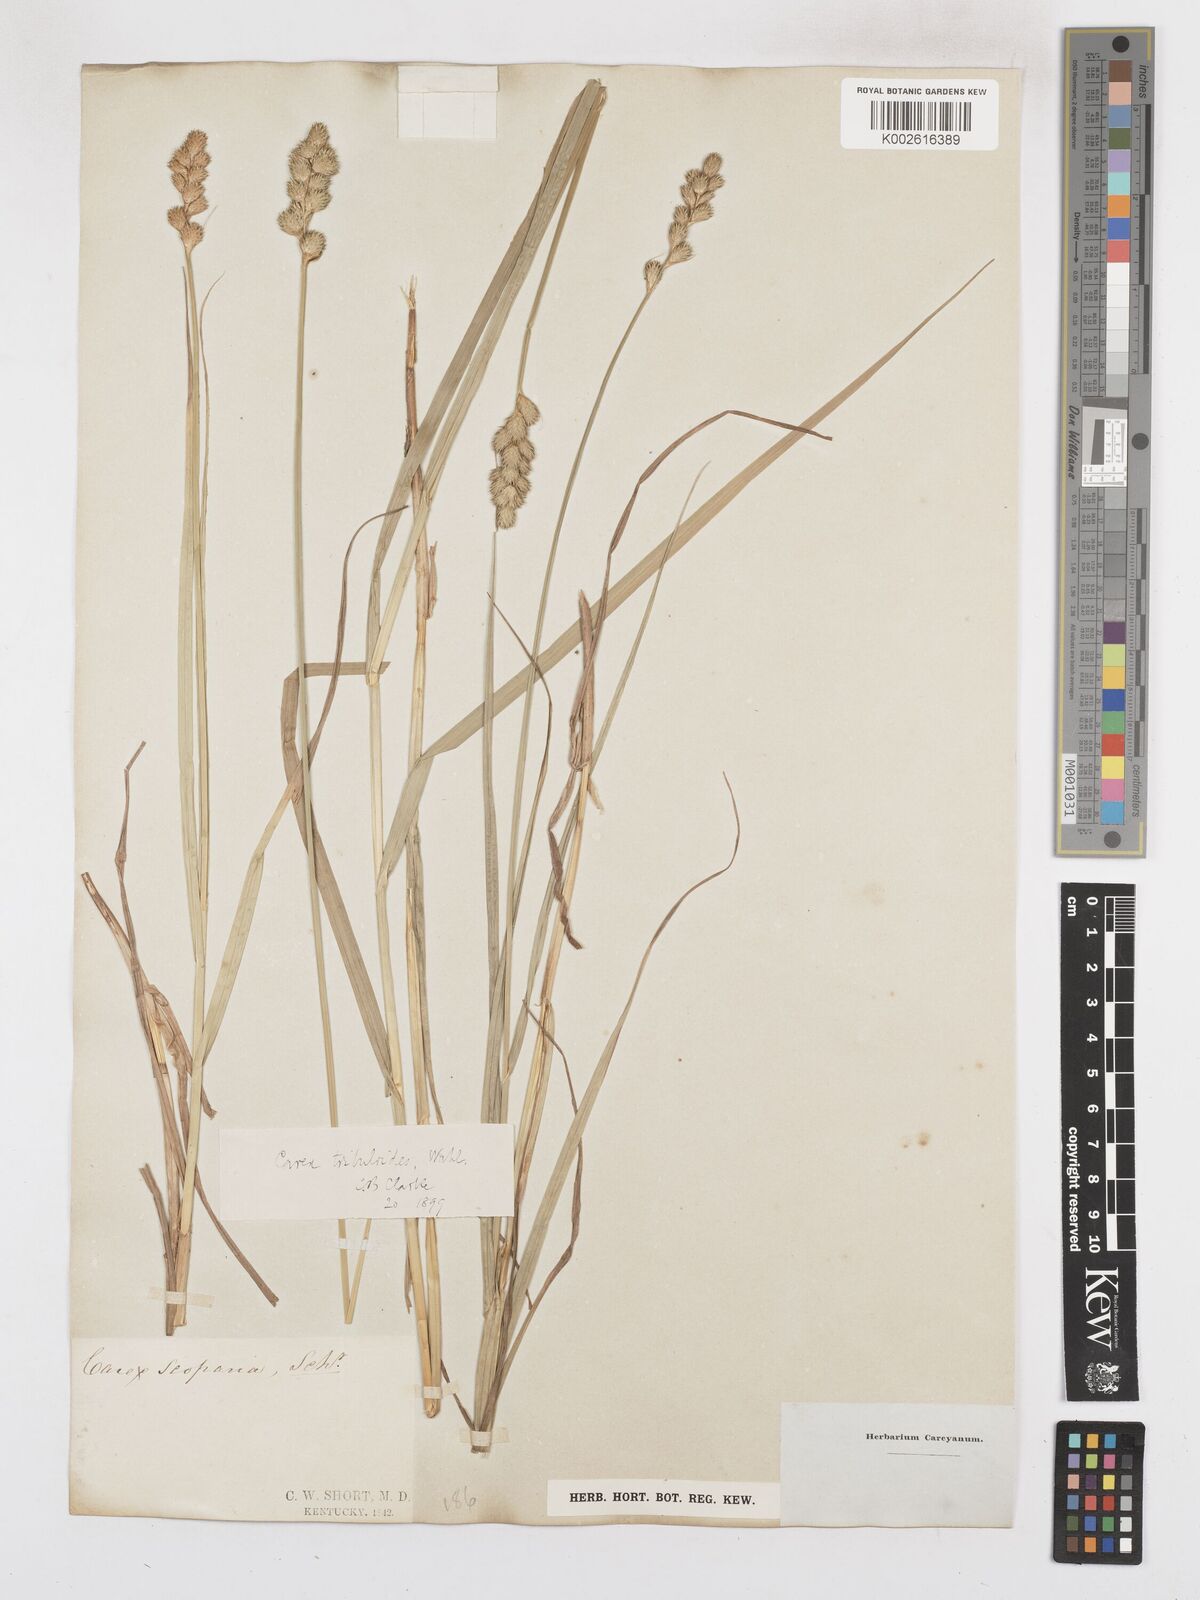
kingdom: Plantae
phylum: Tracheophyta
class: Liliopsida
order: Poales
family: Cyperaceae
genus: Carex
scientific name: Carex tribuloides
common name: Blunt broom sedge
